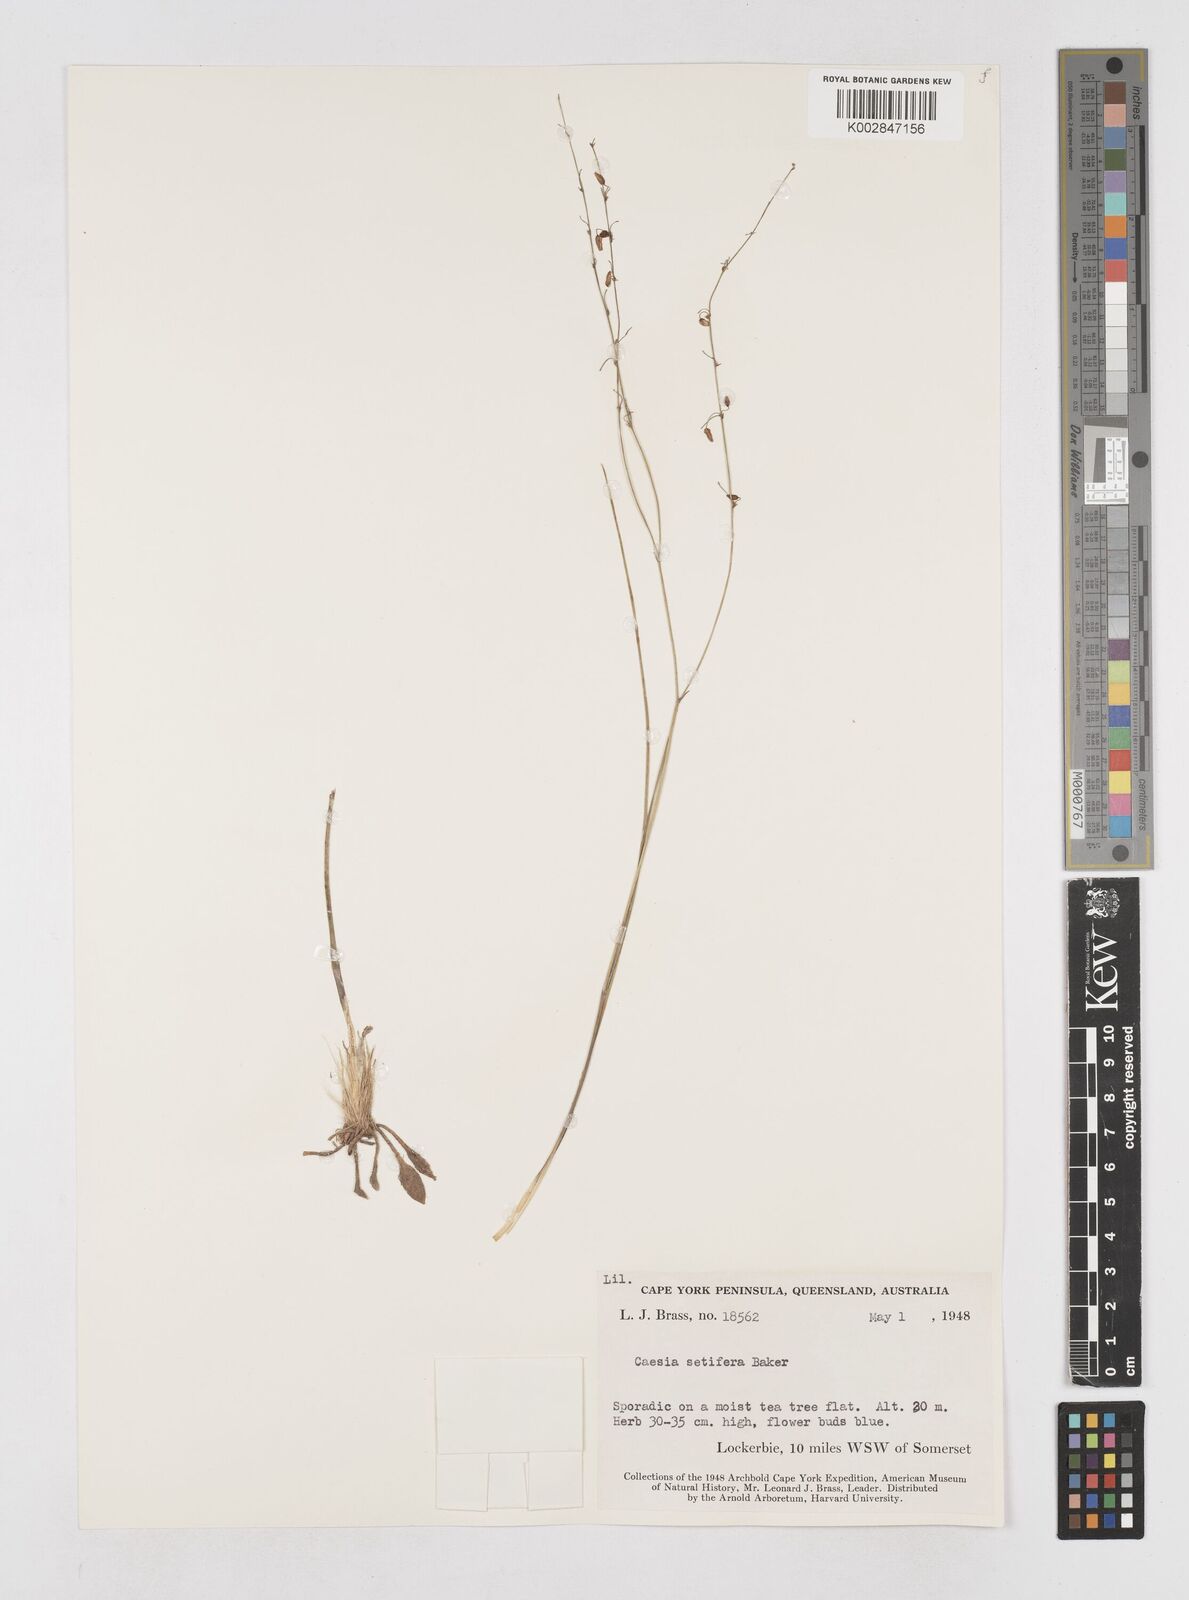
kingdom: Plantae
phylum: Tracheophyta
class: Liliopsida
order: Asparagales
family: Asphodelaceae
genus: Caesia
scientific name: Caesia setifera
